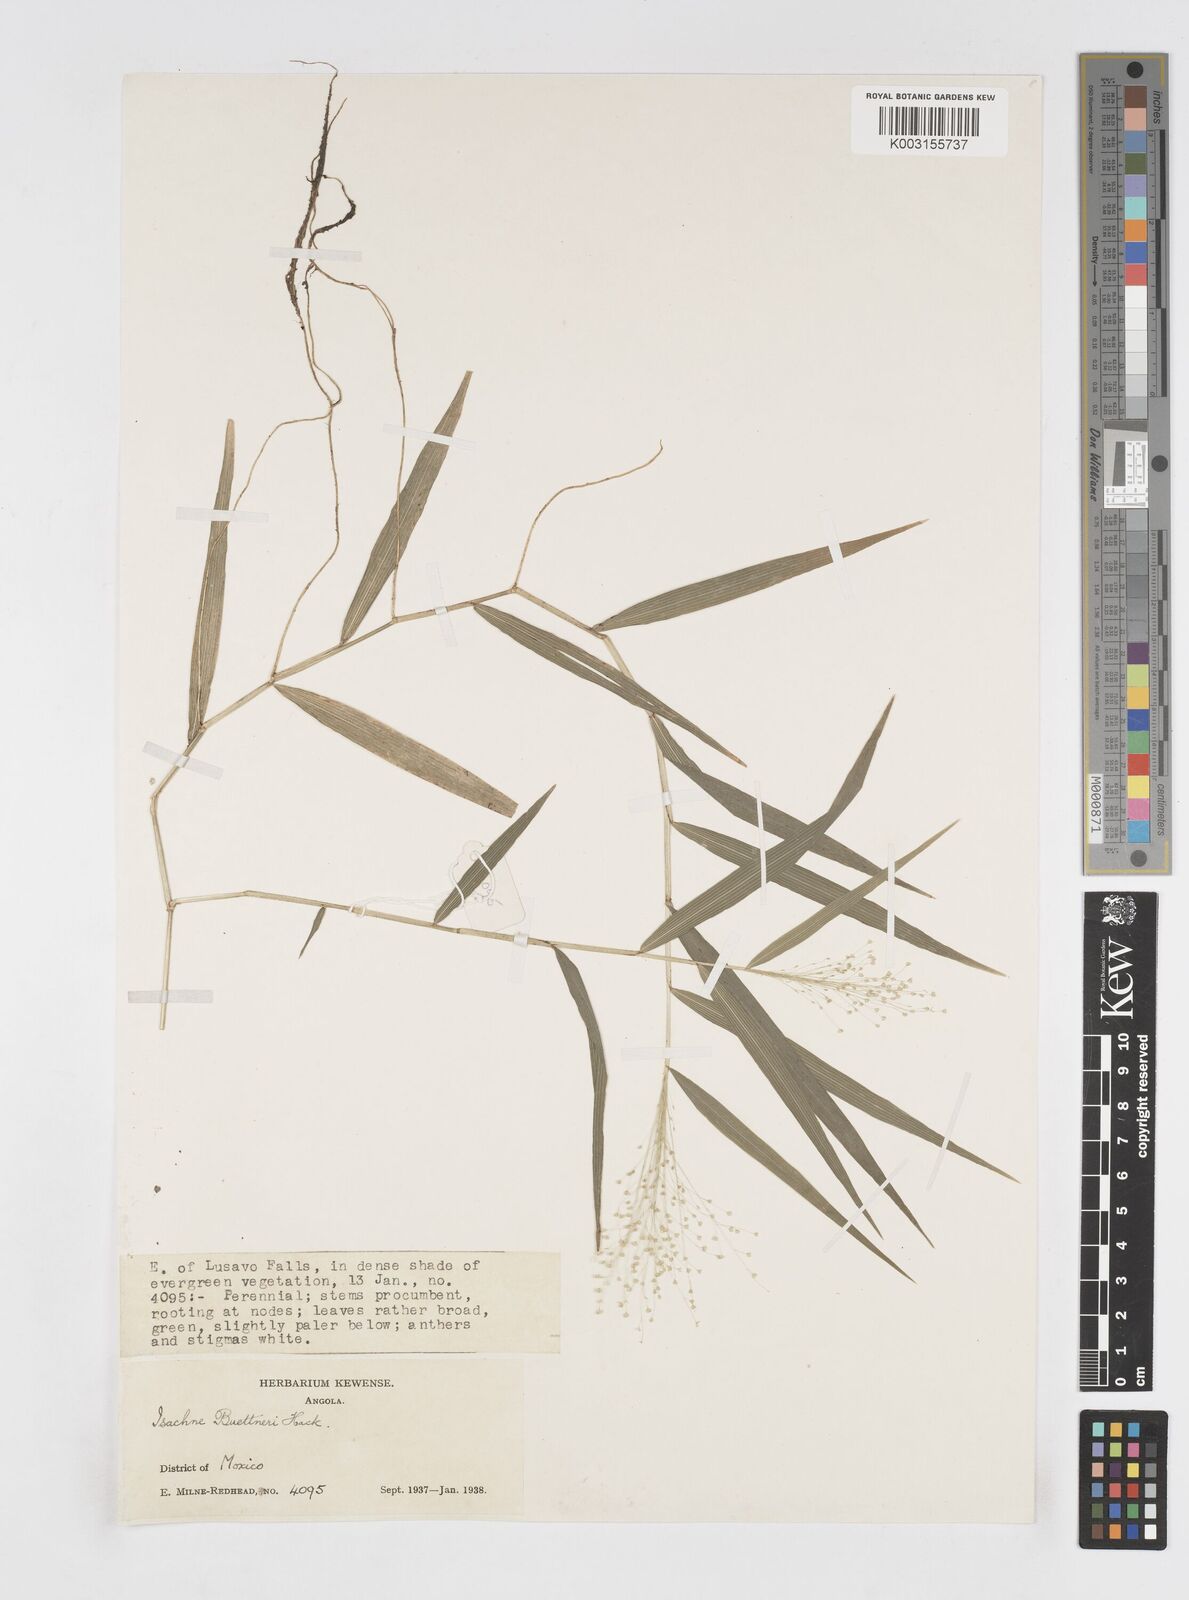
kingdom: Plantae
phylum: Tracheophyta
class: Liliopsida
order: Poales
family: Poaceae
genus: Isachne
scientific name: Isachne albens
